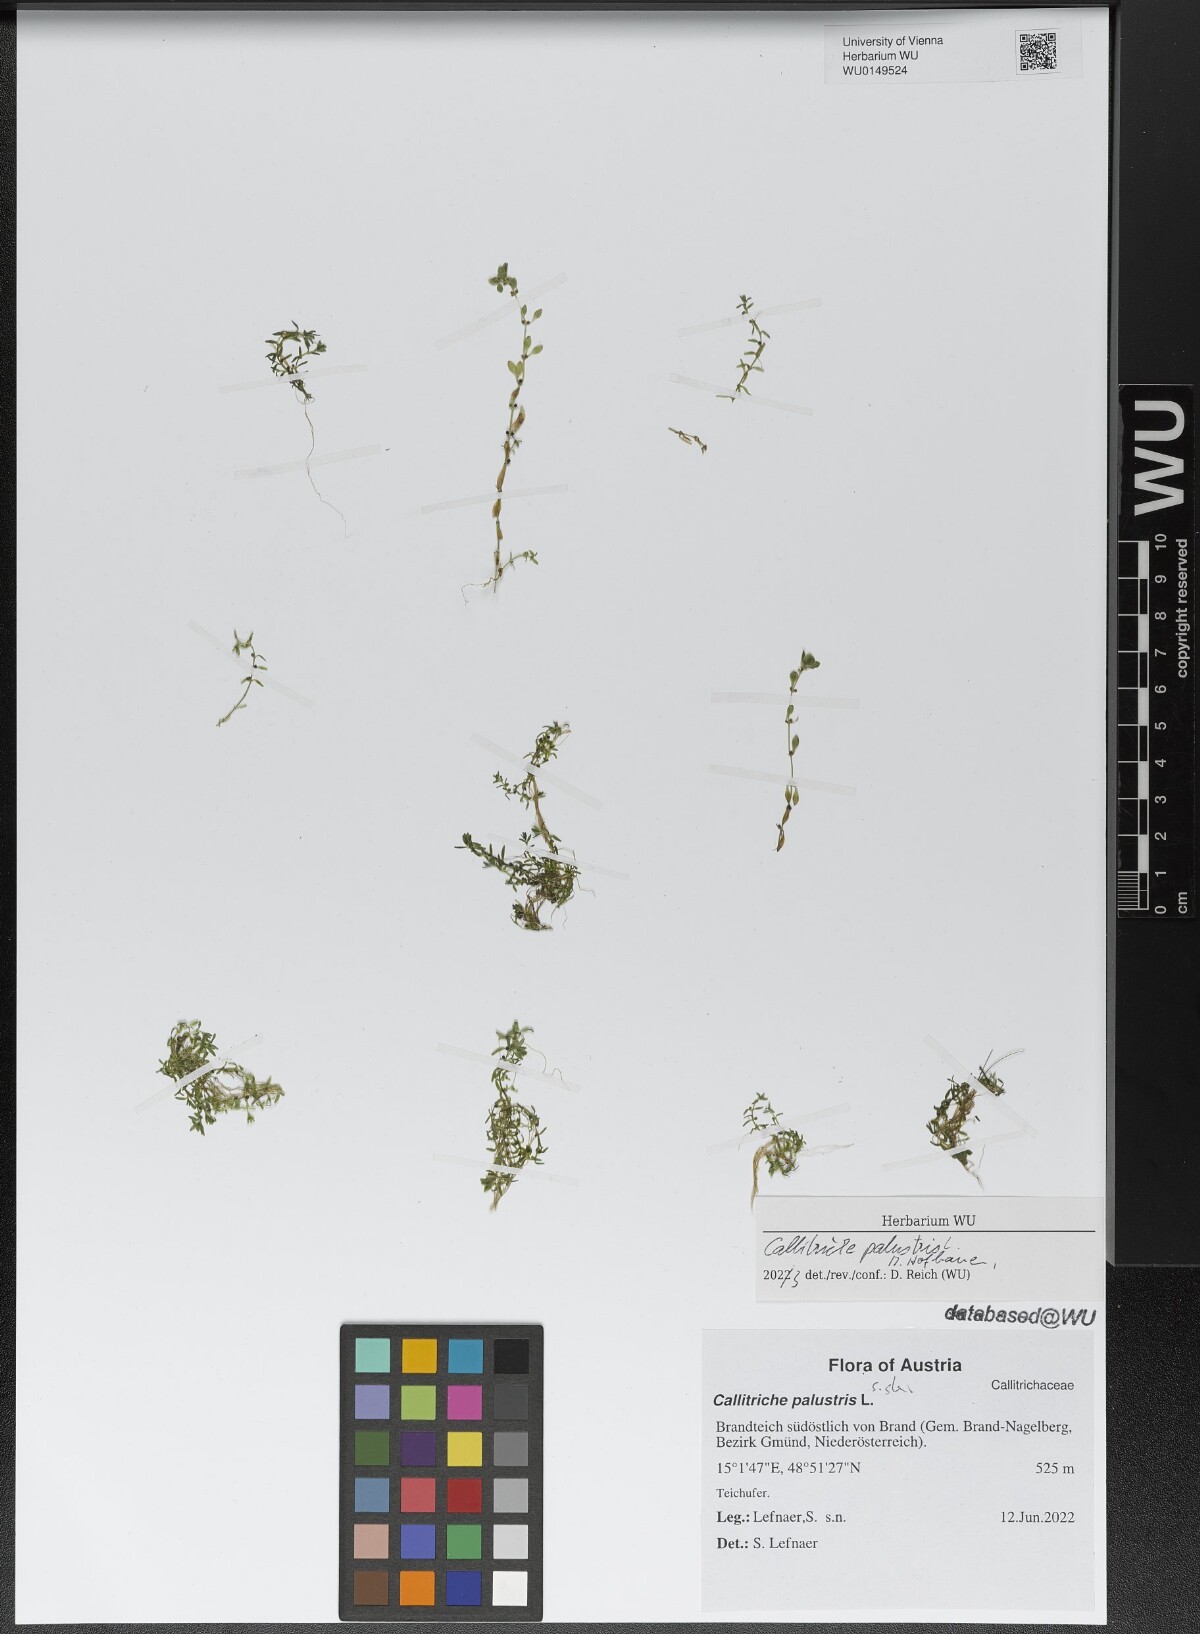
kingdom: Plantae
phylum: Tracheophyta
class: Magnoliopsida
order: Lamiales
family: Plantaginaceae
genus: Callitriche
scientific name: Callitriche palustris
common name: Spring water-starwort
